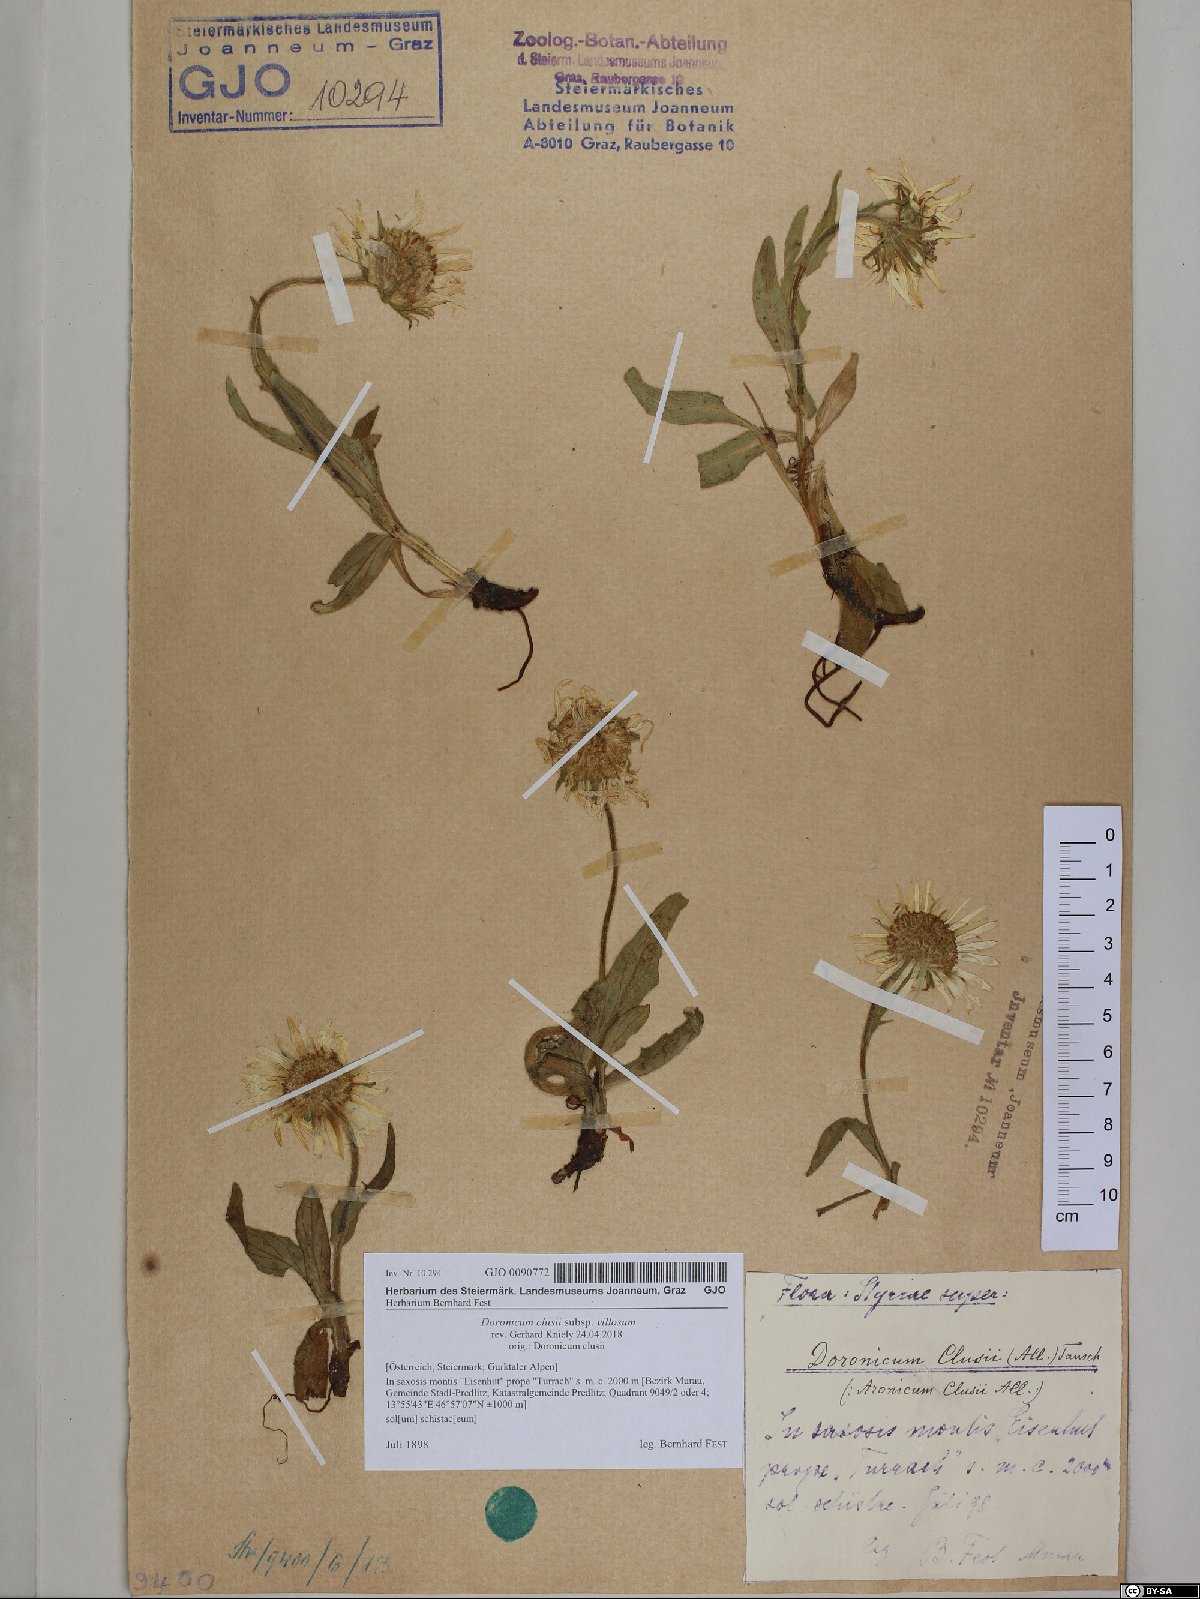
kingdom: Plantae
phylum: Tracheophyta
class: Magnoliopsida
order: Asterales
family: Asteraceae
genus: Doronicum
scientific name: Doronicum clusii
